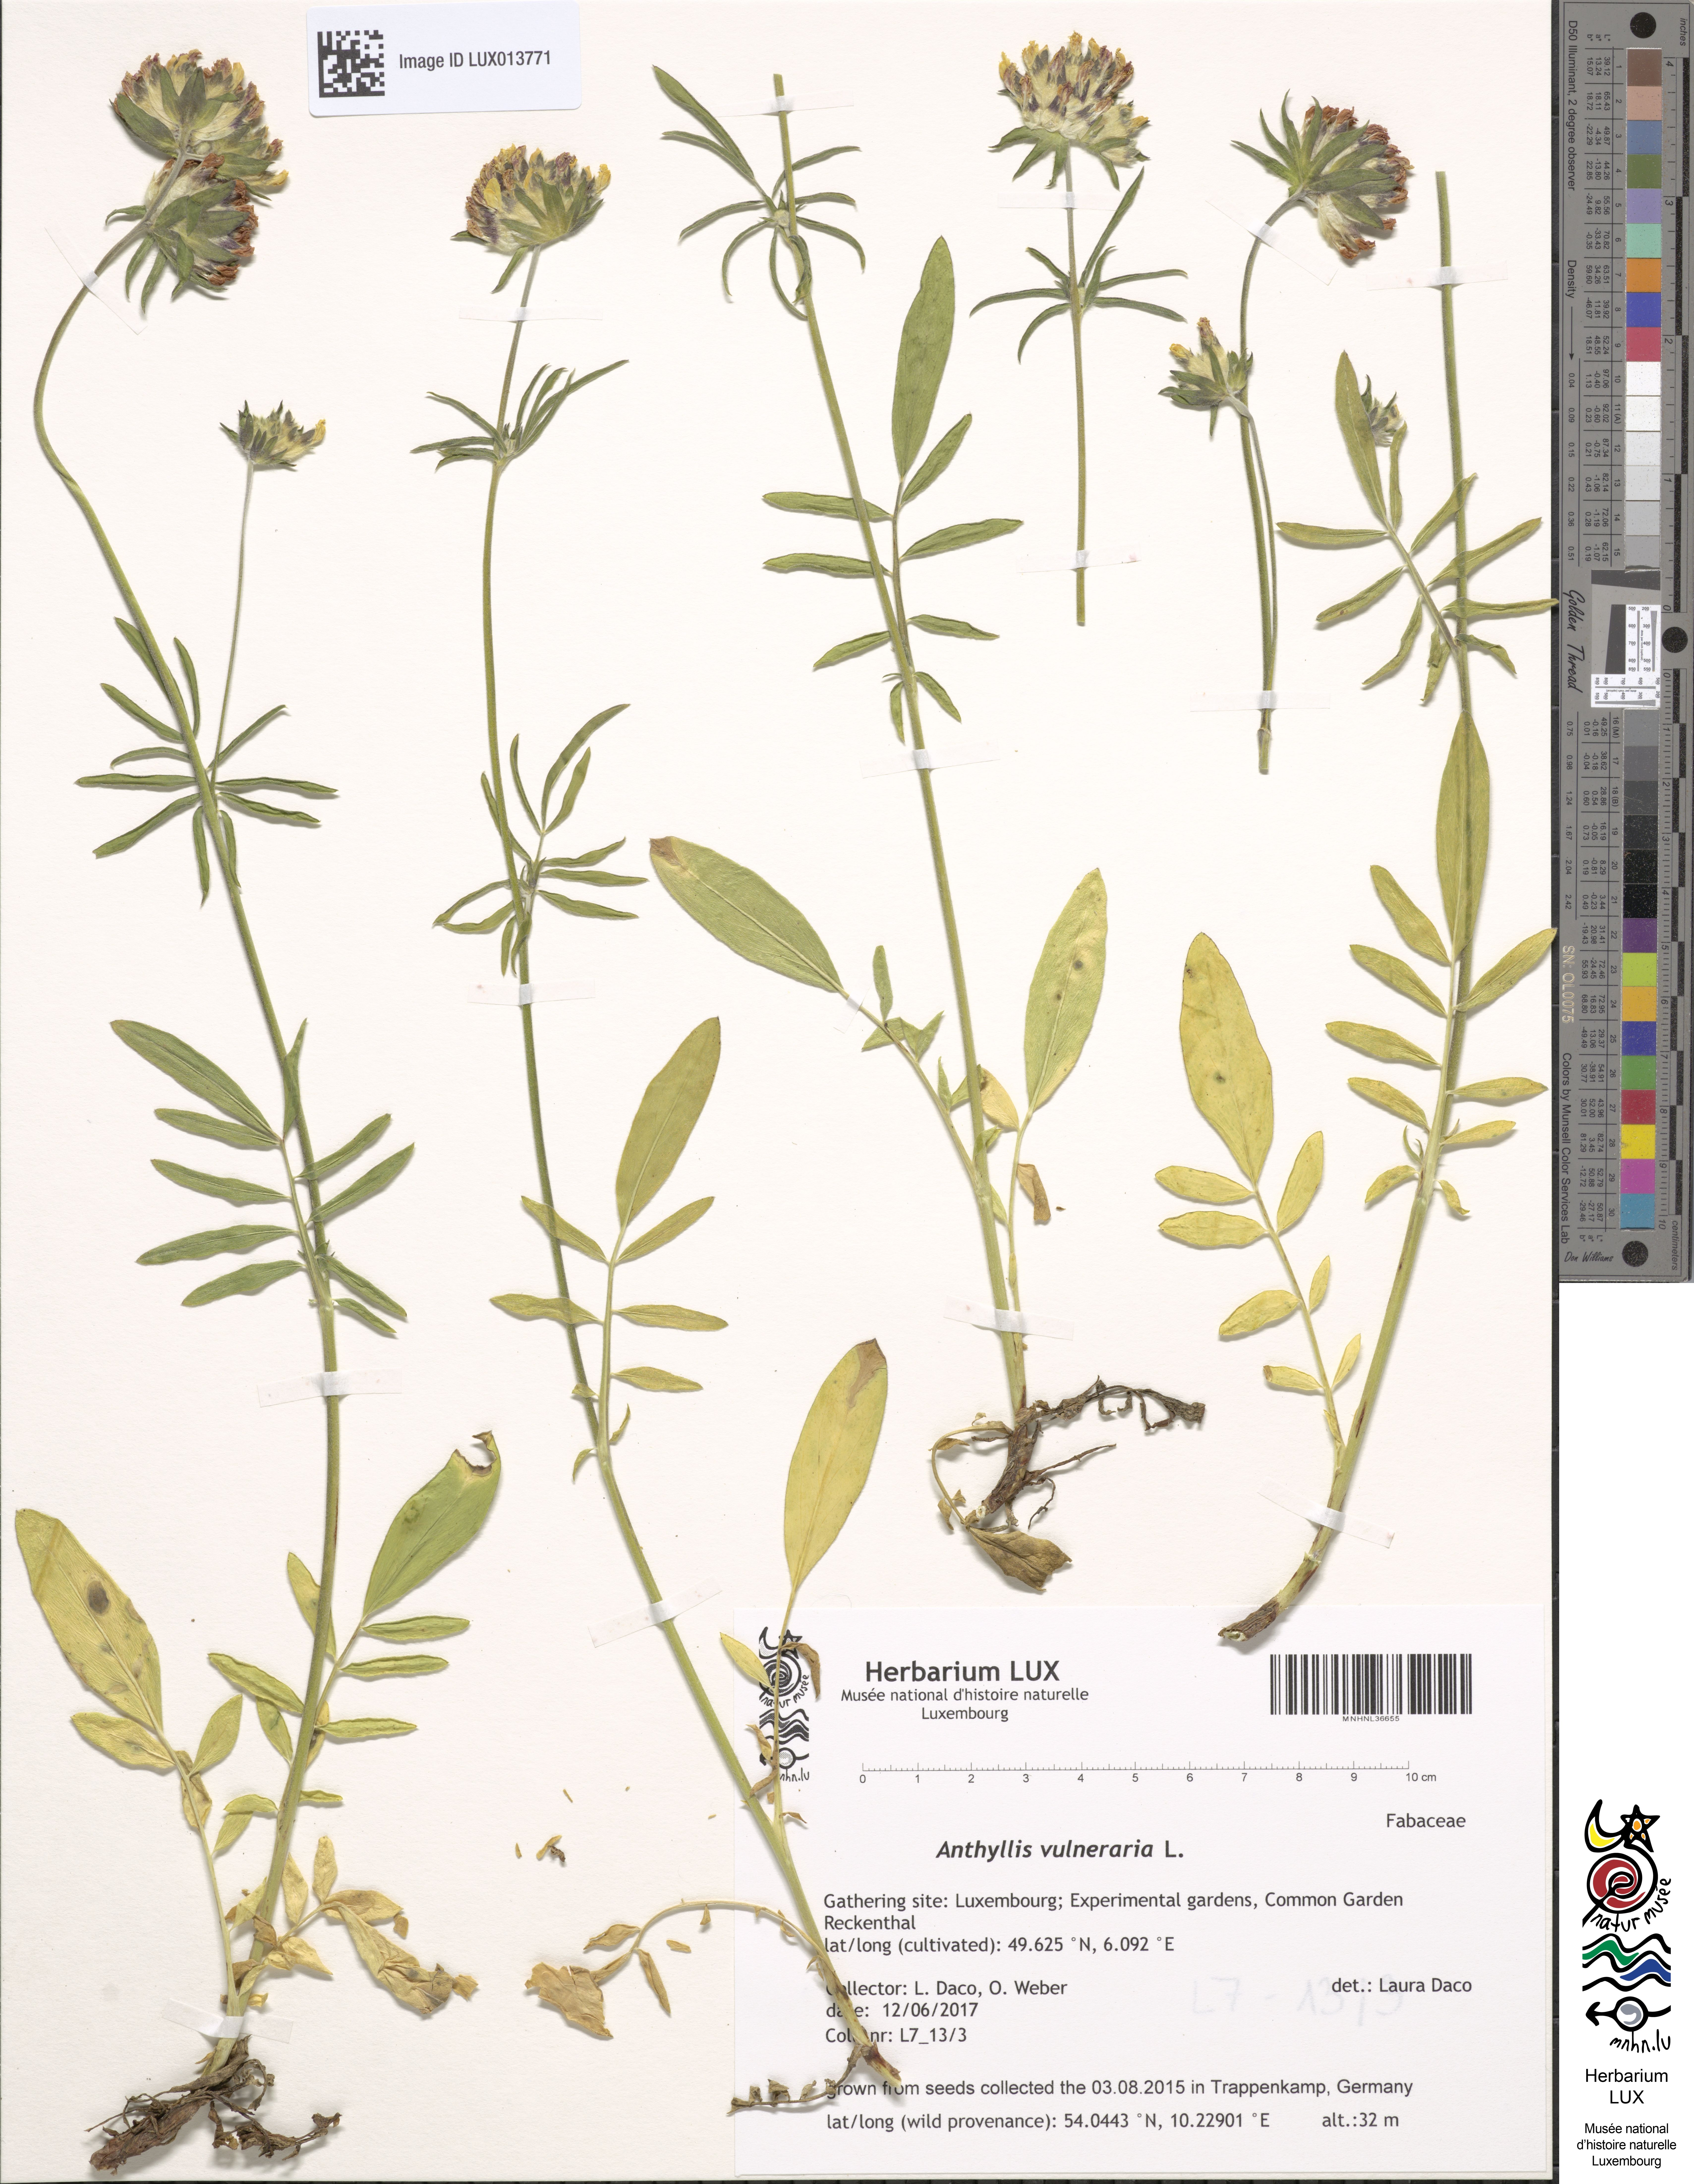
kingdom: Plantae
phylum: Tracheophyta
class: Magnoliopsida
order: Fabales
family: Fabaceae
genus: Anthyllis
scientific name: Anthyllis vulneraria
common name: Kidney vetch
